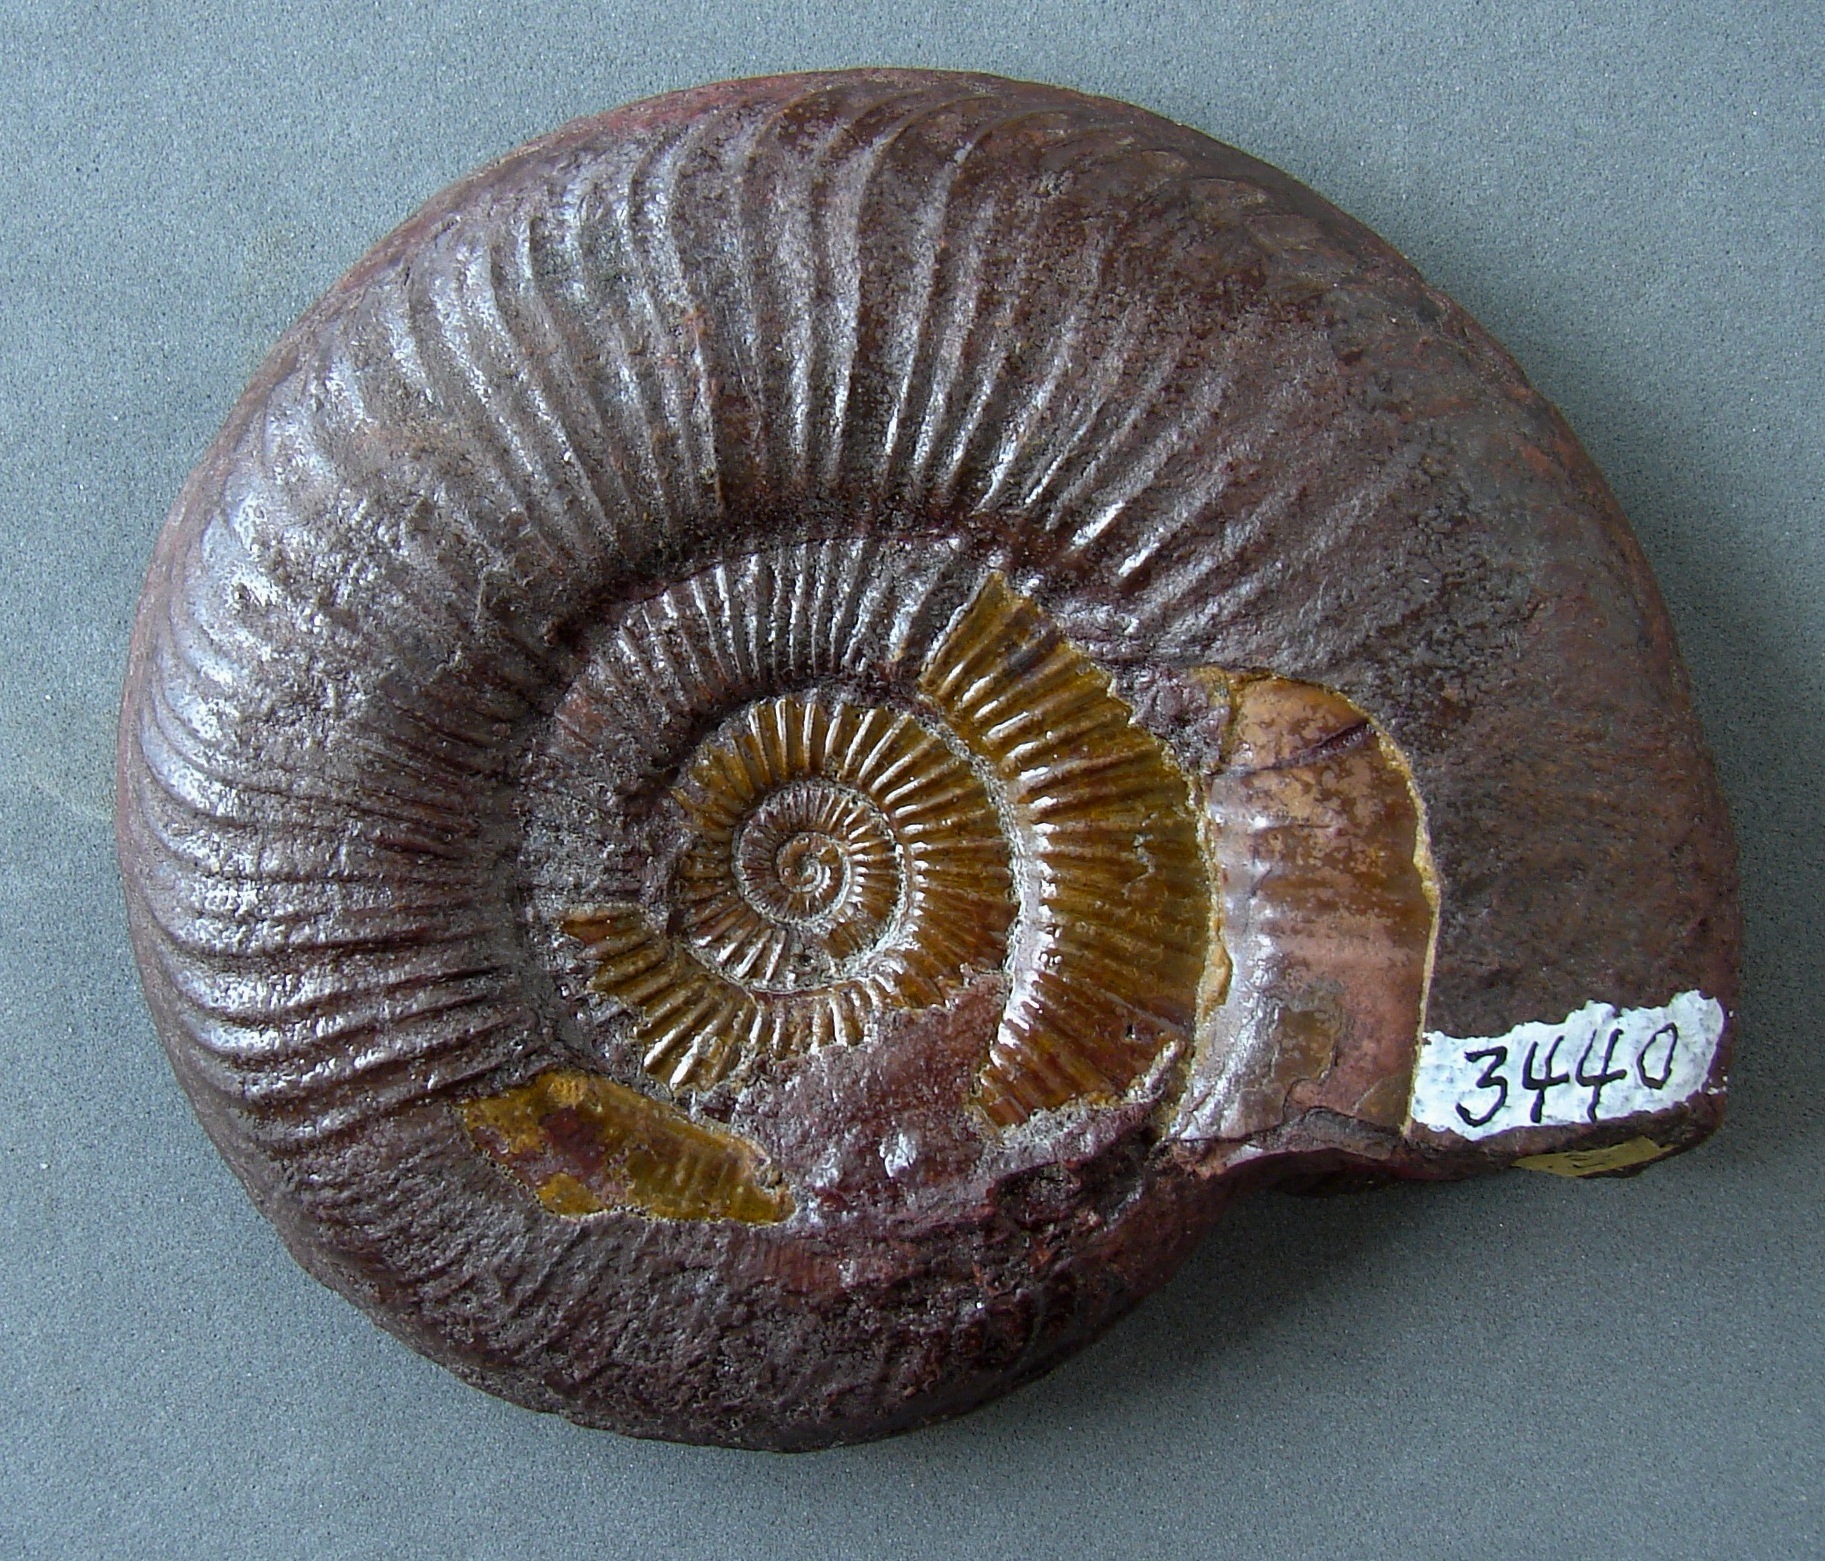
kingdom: Animalia
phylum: Mollusca
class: Cephalopoda
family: Hildoceratidae
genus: Dumortieria
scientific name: Dumortieria pseudoradiosa
